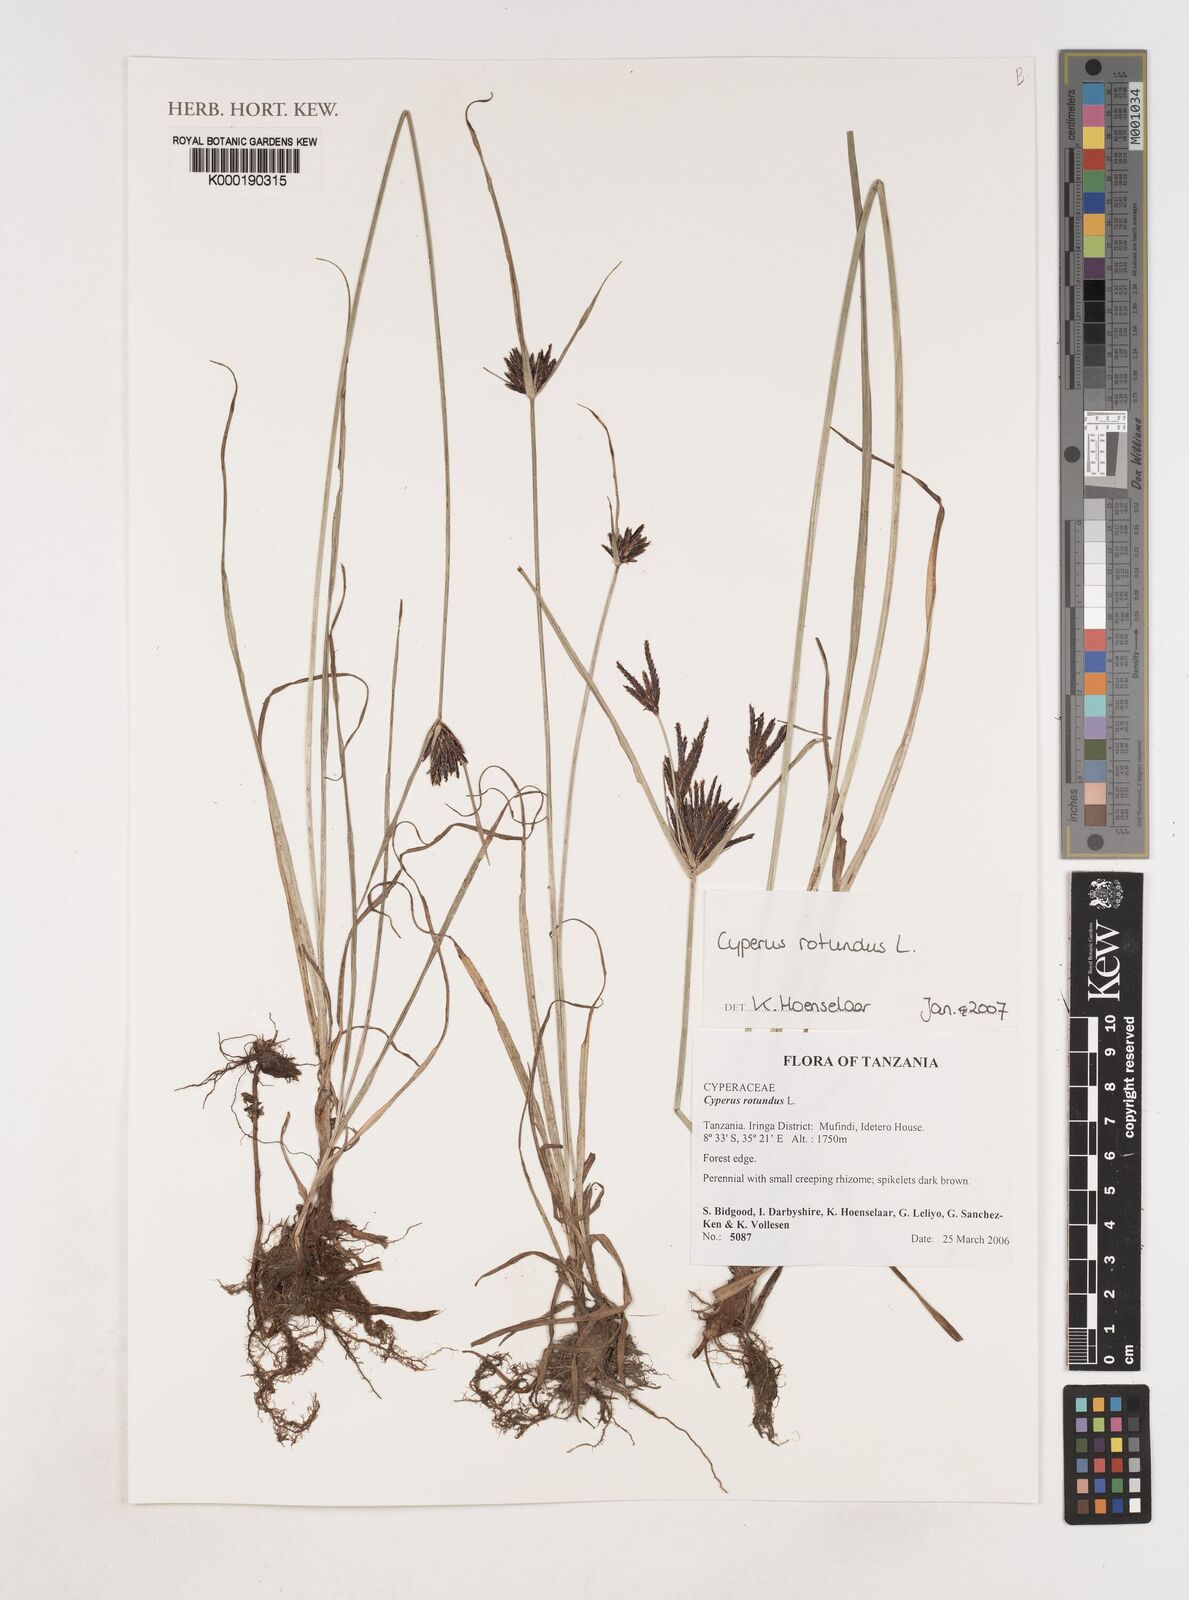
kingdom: Plantae
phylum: Tracheophyta
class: Liliopsida
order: Poales
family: Cyperaceae
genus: Cyperus
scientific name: Cyperus rotundus
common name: Nutgrass
